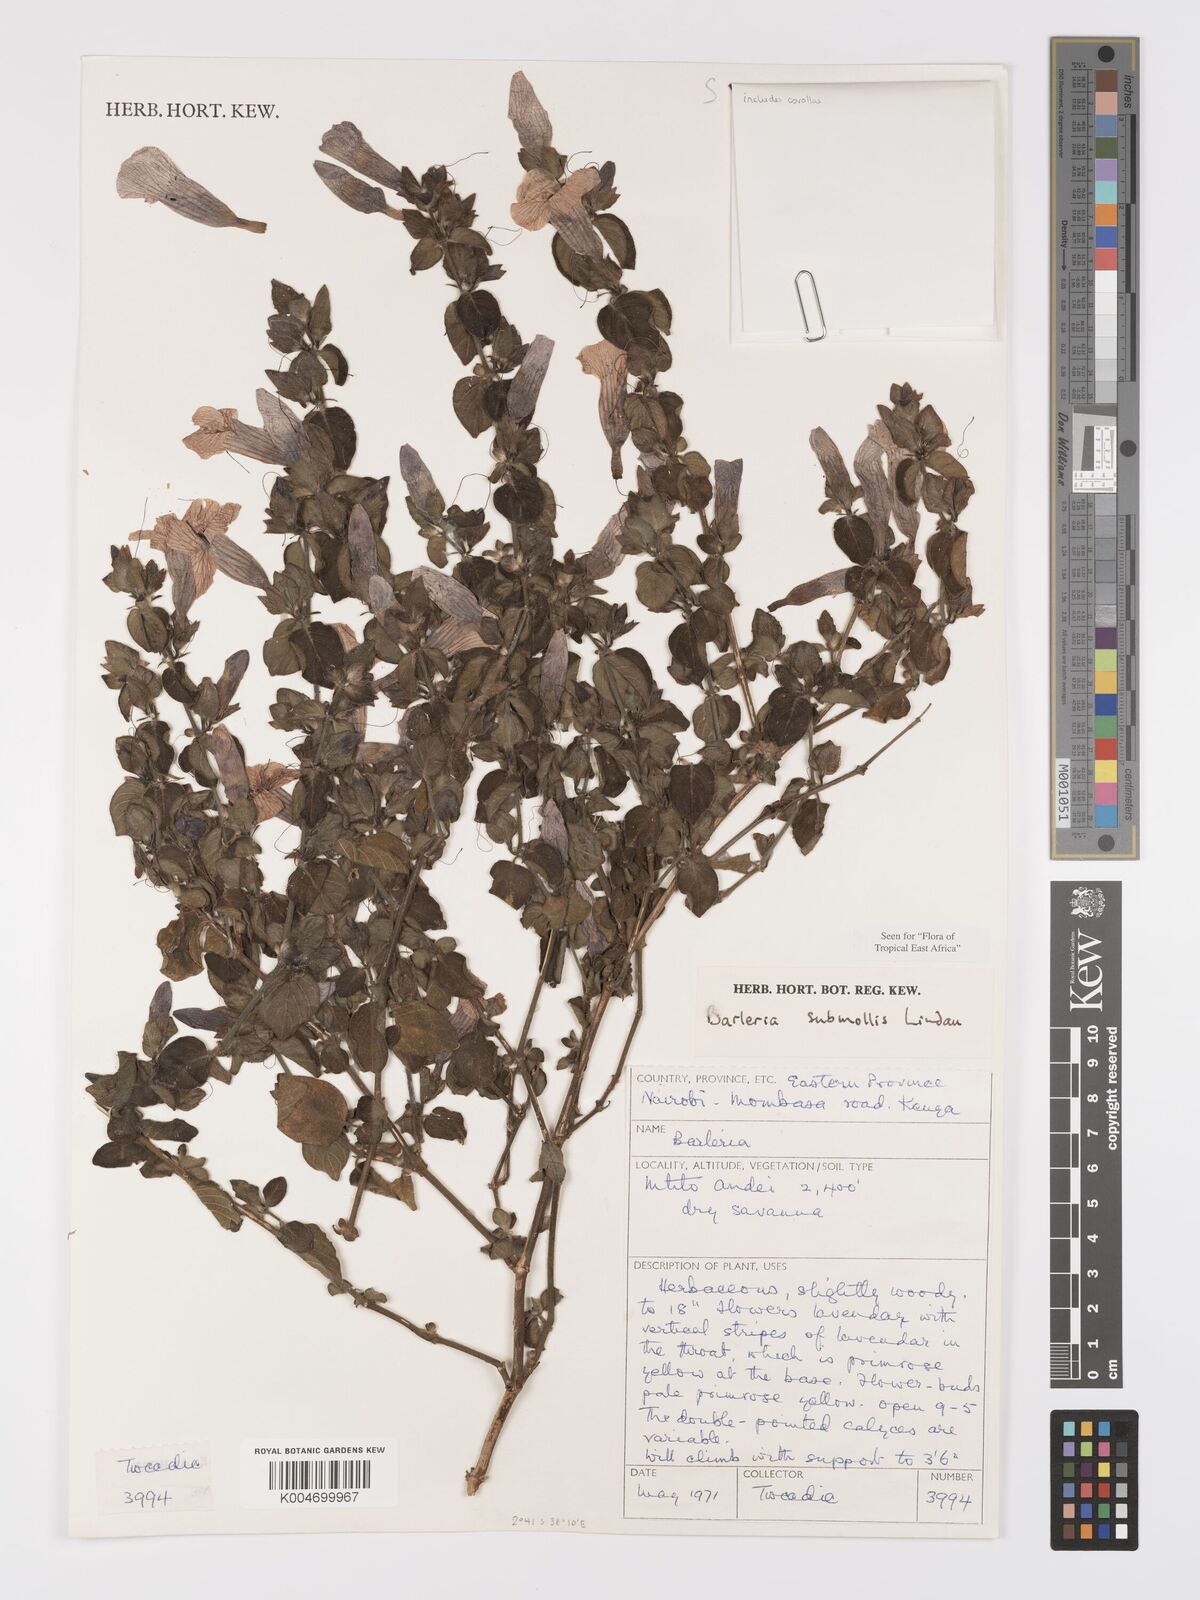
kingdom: Plantae
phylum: Tracheophyta
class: Magnoliopsida
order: Lamiales
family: Acanthaceae
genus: Barleria
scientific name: Barleria submollis
